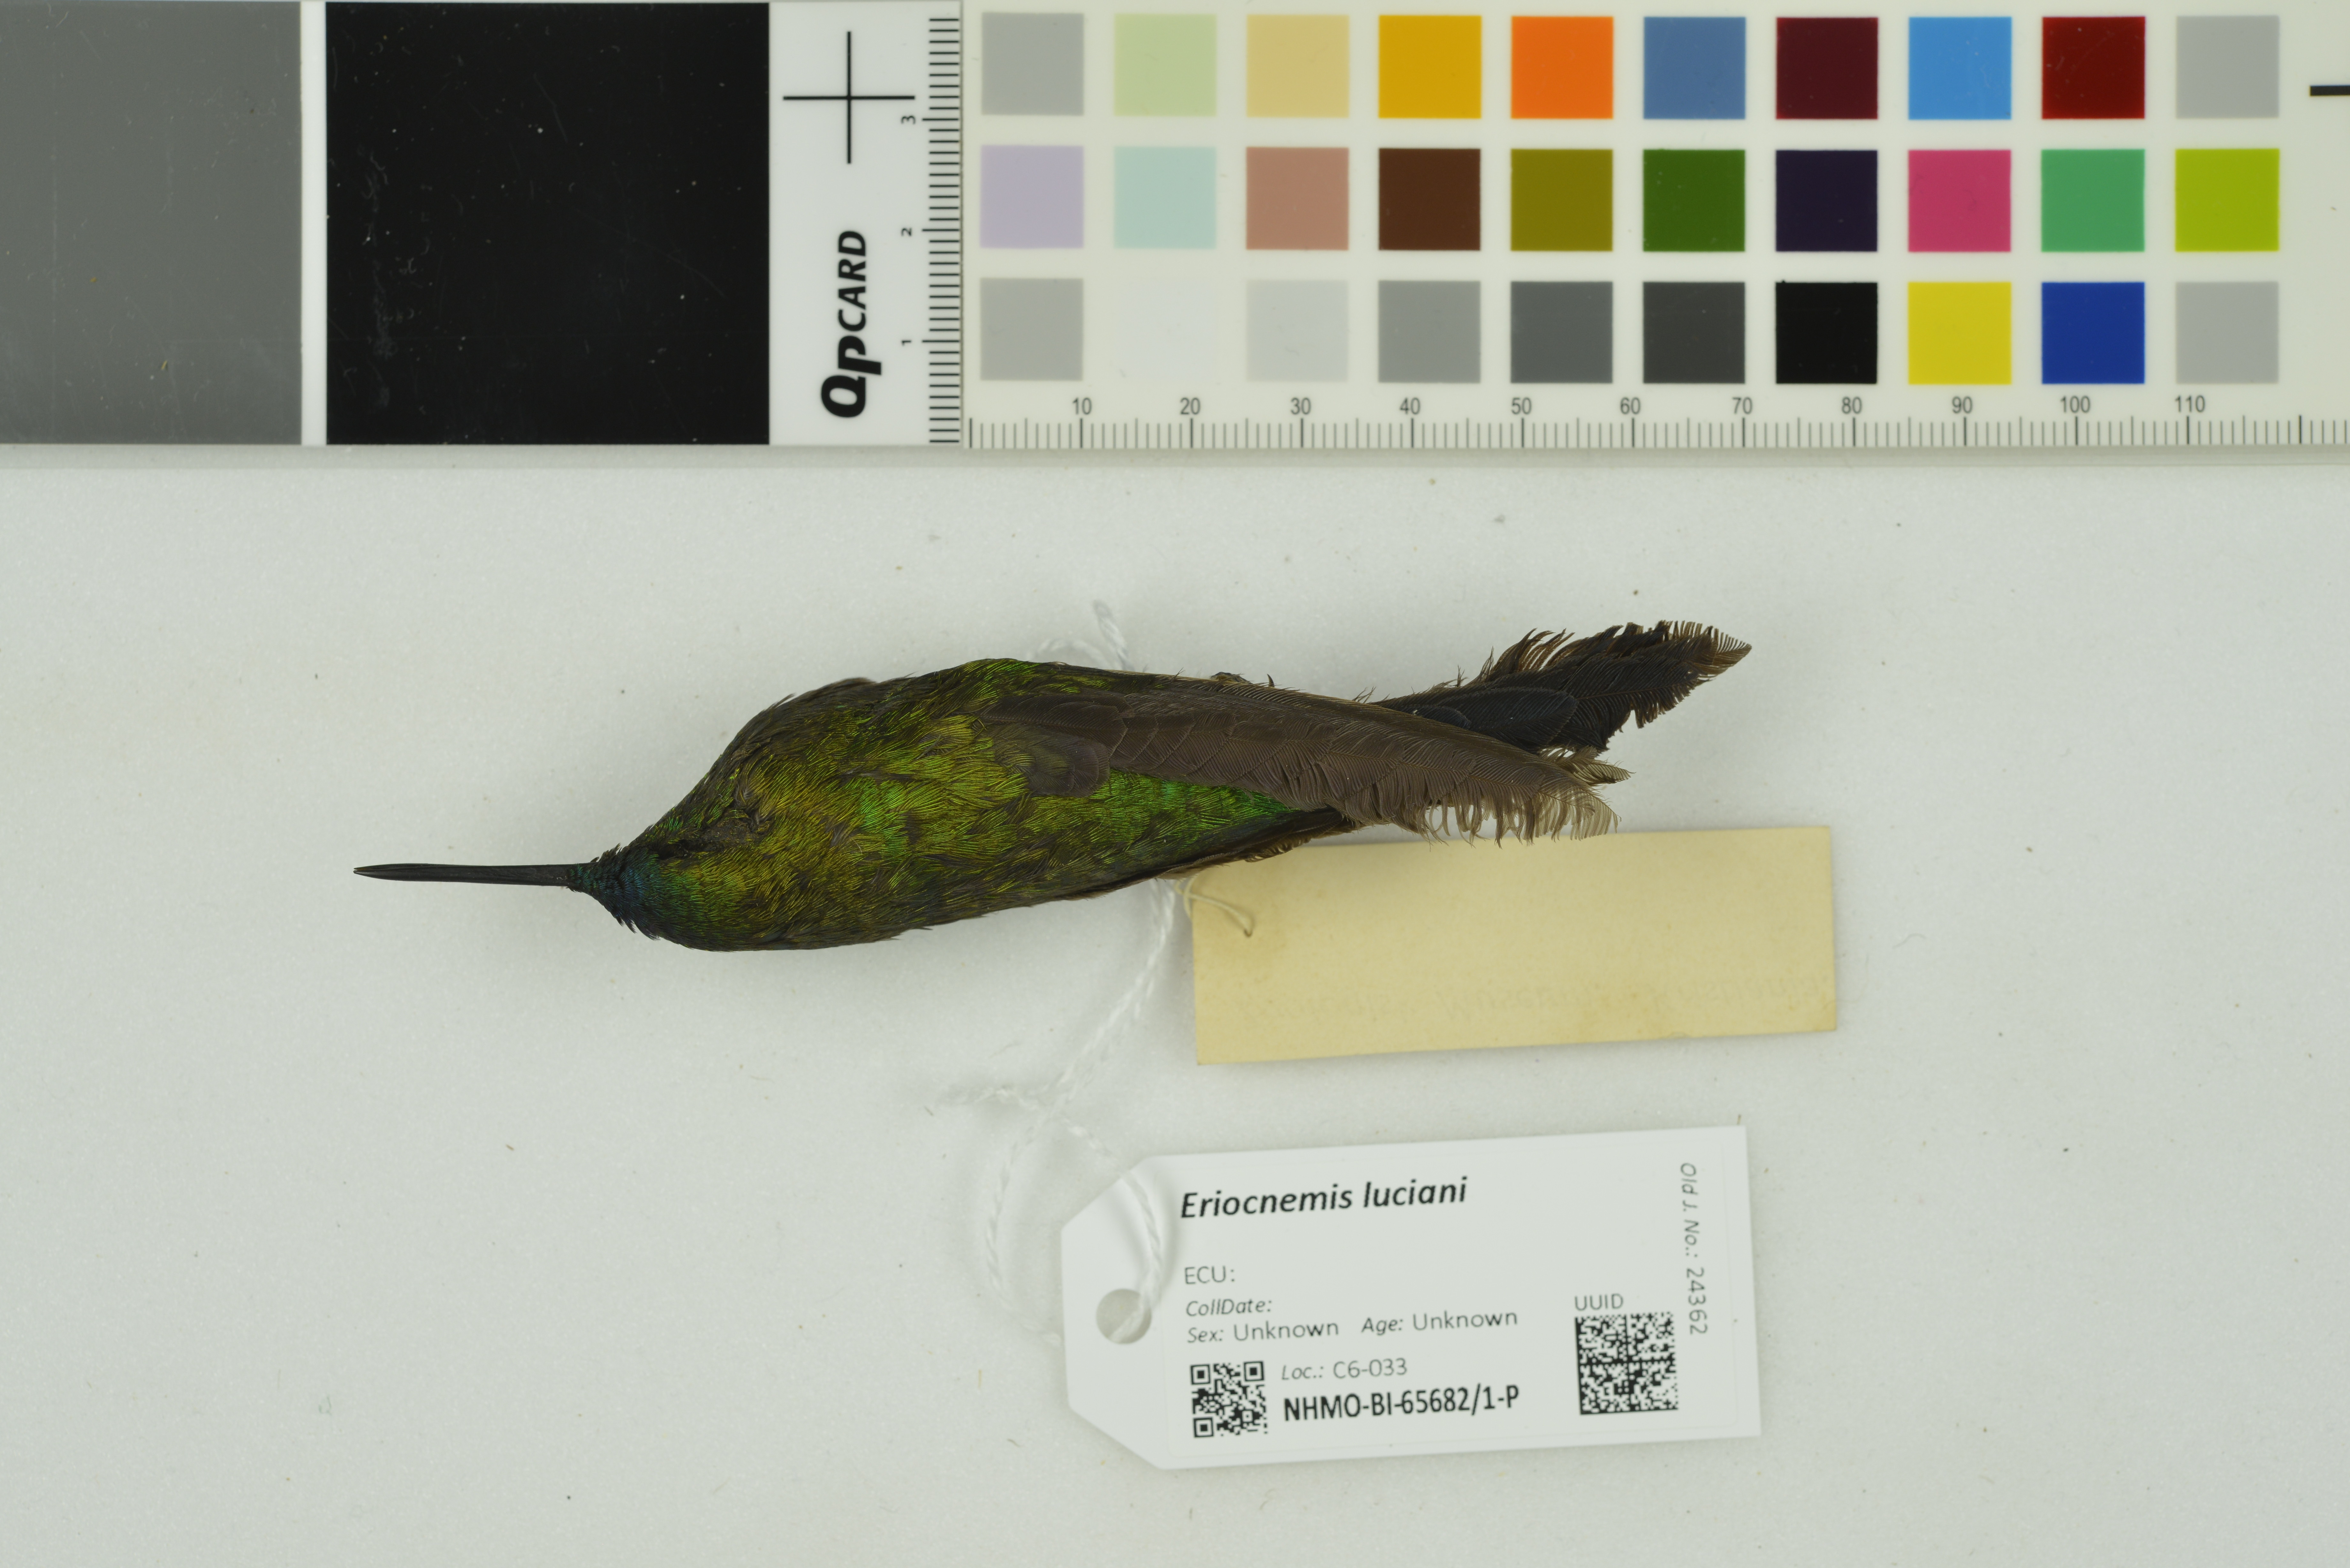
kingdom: Animalia
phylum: Chordata
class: Aves
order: Apodiformes
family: Trochilidae
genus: Eriocnemis
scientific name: Eriocnemis luciani
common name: Sapphire-vented puffleg
